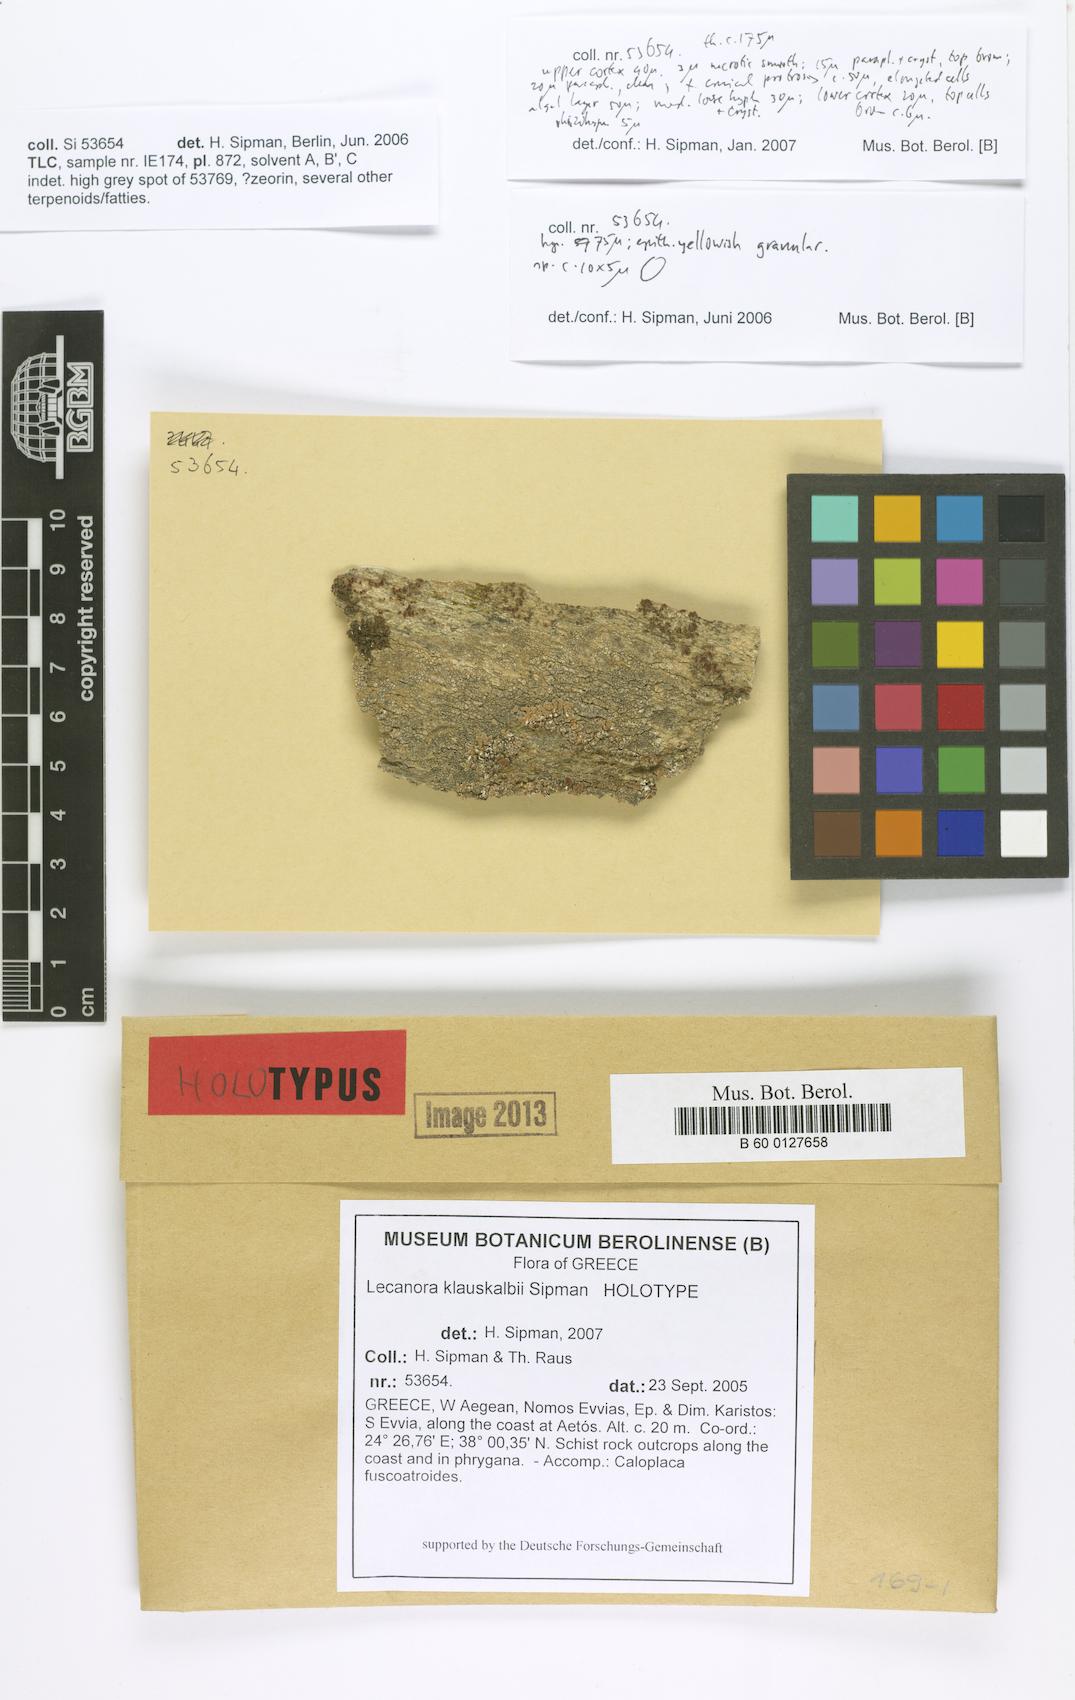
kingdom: Fungi
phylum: Ascomycota
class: Lecanoromycetes
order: Lecanorales
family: Lecanoraceae
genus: Protoparmeliopsis
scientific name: Protoparmeliopsis klauskalbii
